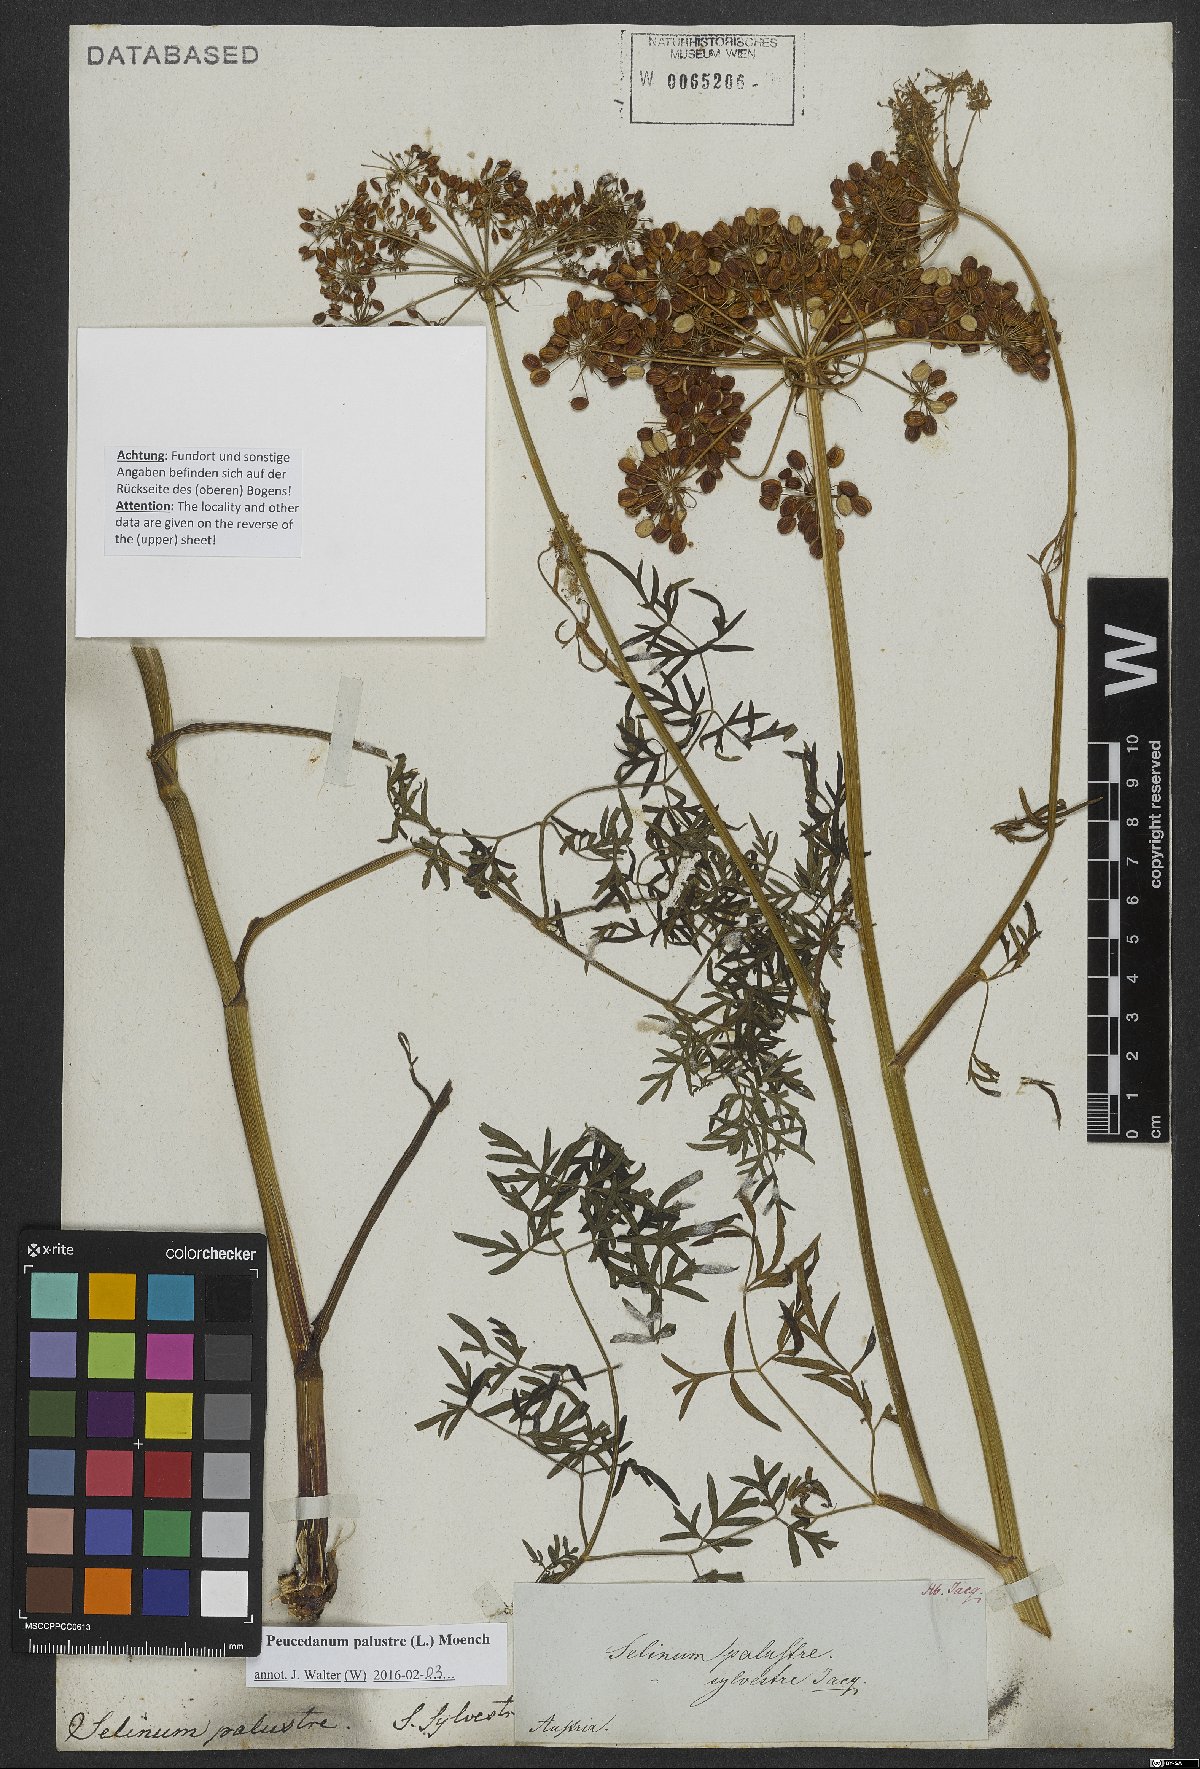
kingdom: Plantae
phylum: Tracheophyta
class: Magnoliopsida
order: Apiales
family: Apiaceae
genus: Thysselinum
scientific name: Thysselinum palustre
